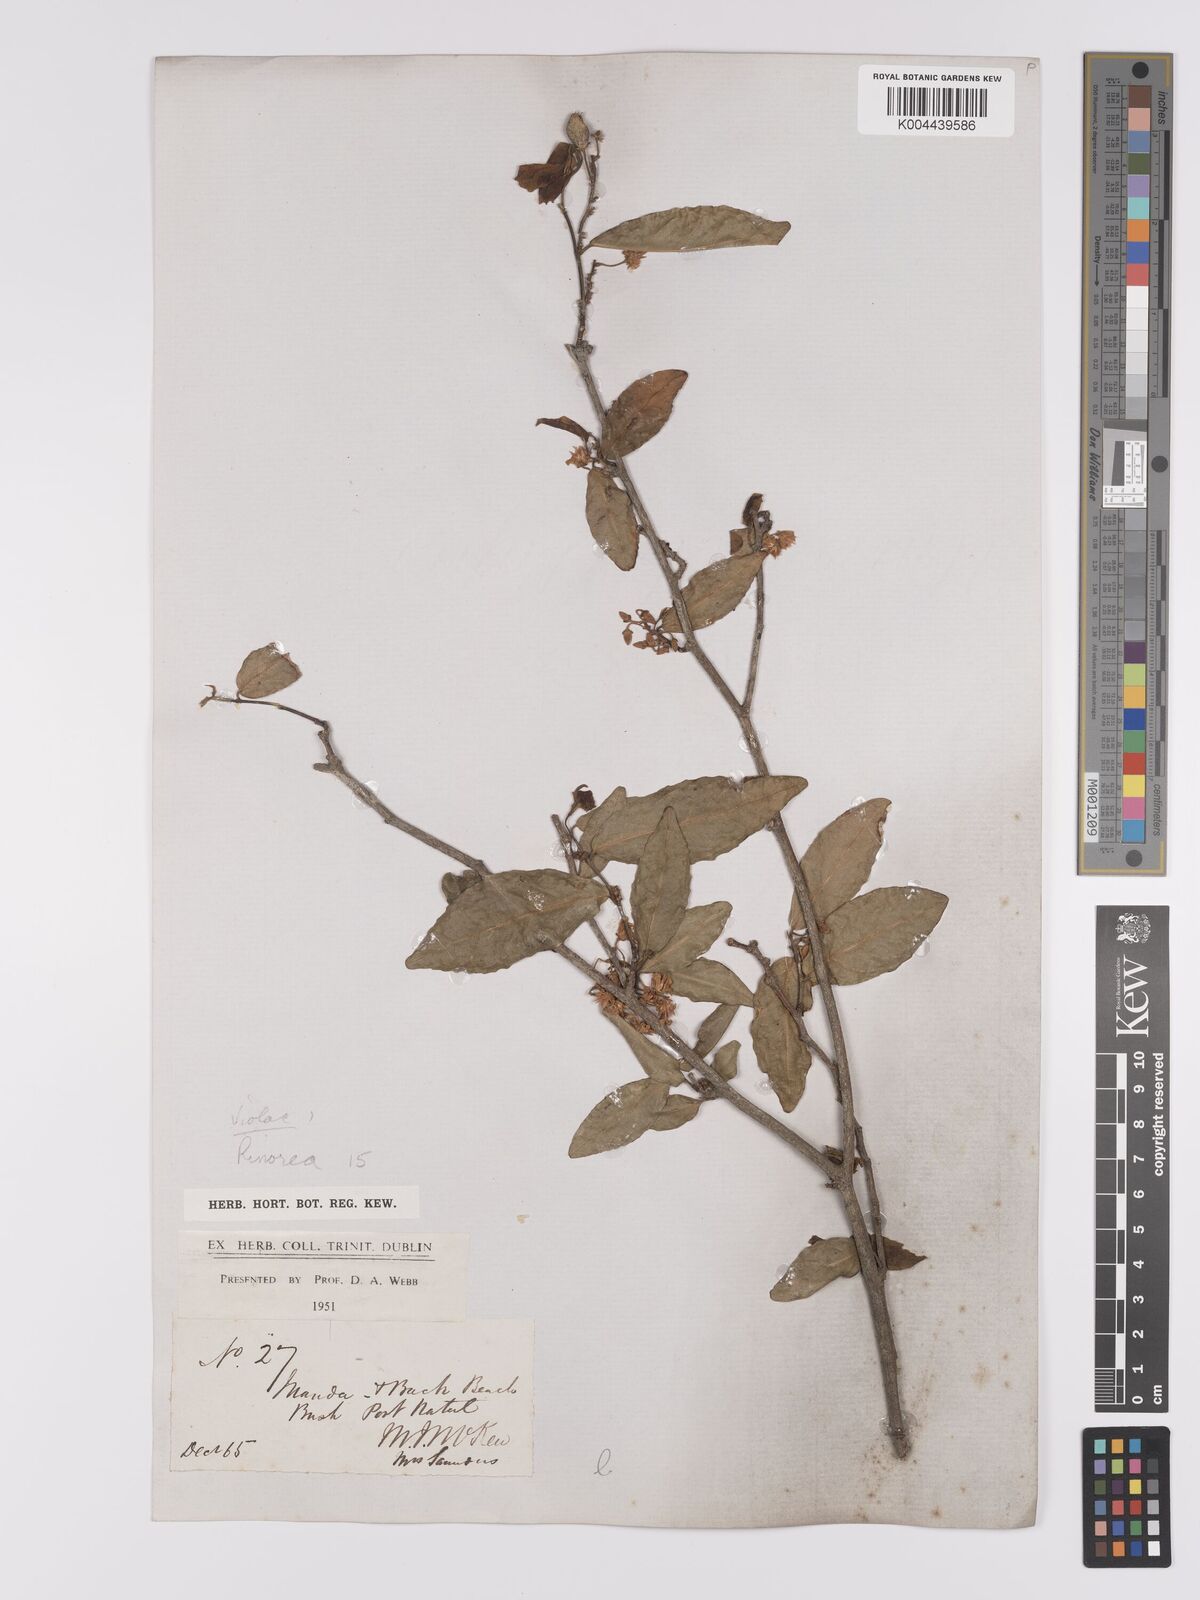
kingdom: Plantae
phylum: Tracheophyta
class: Magnoliopsida
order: Malpighiales
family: Violaceae
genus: Rinorea
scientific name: Rinorea
